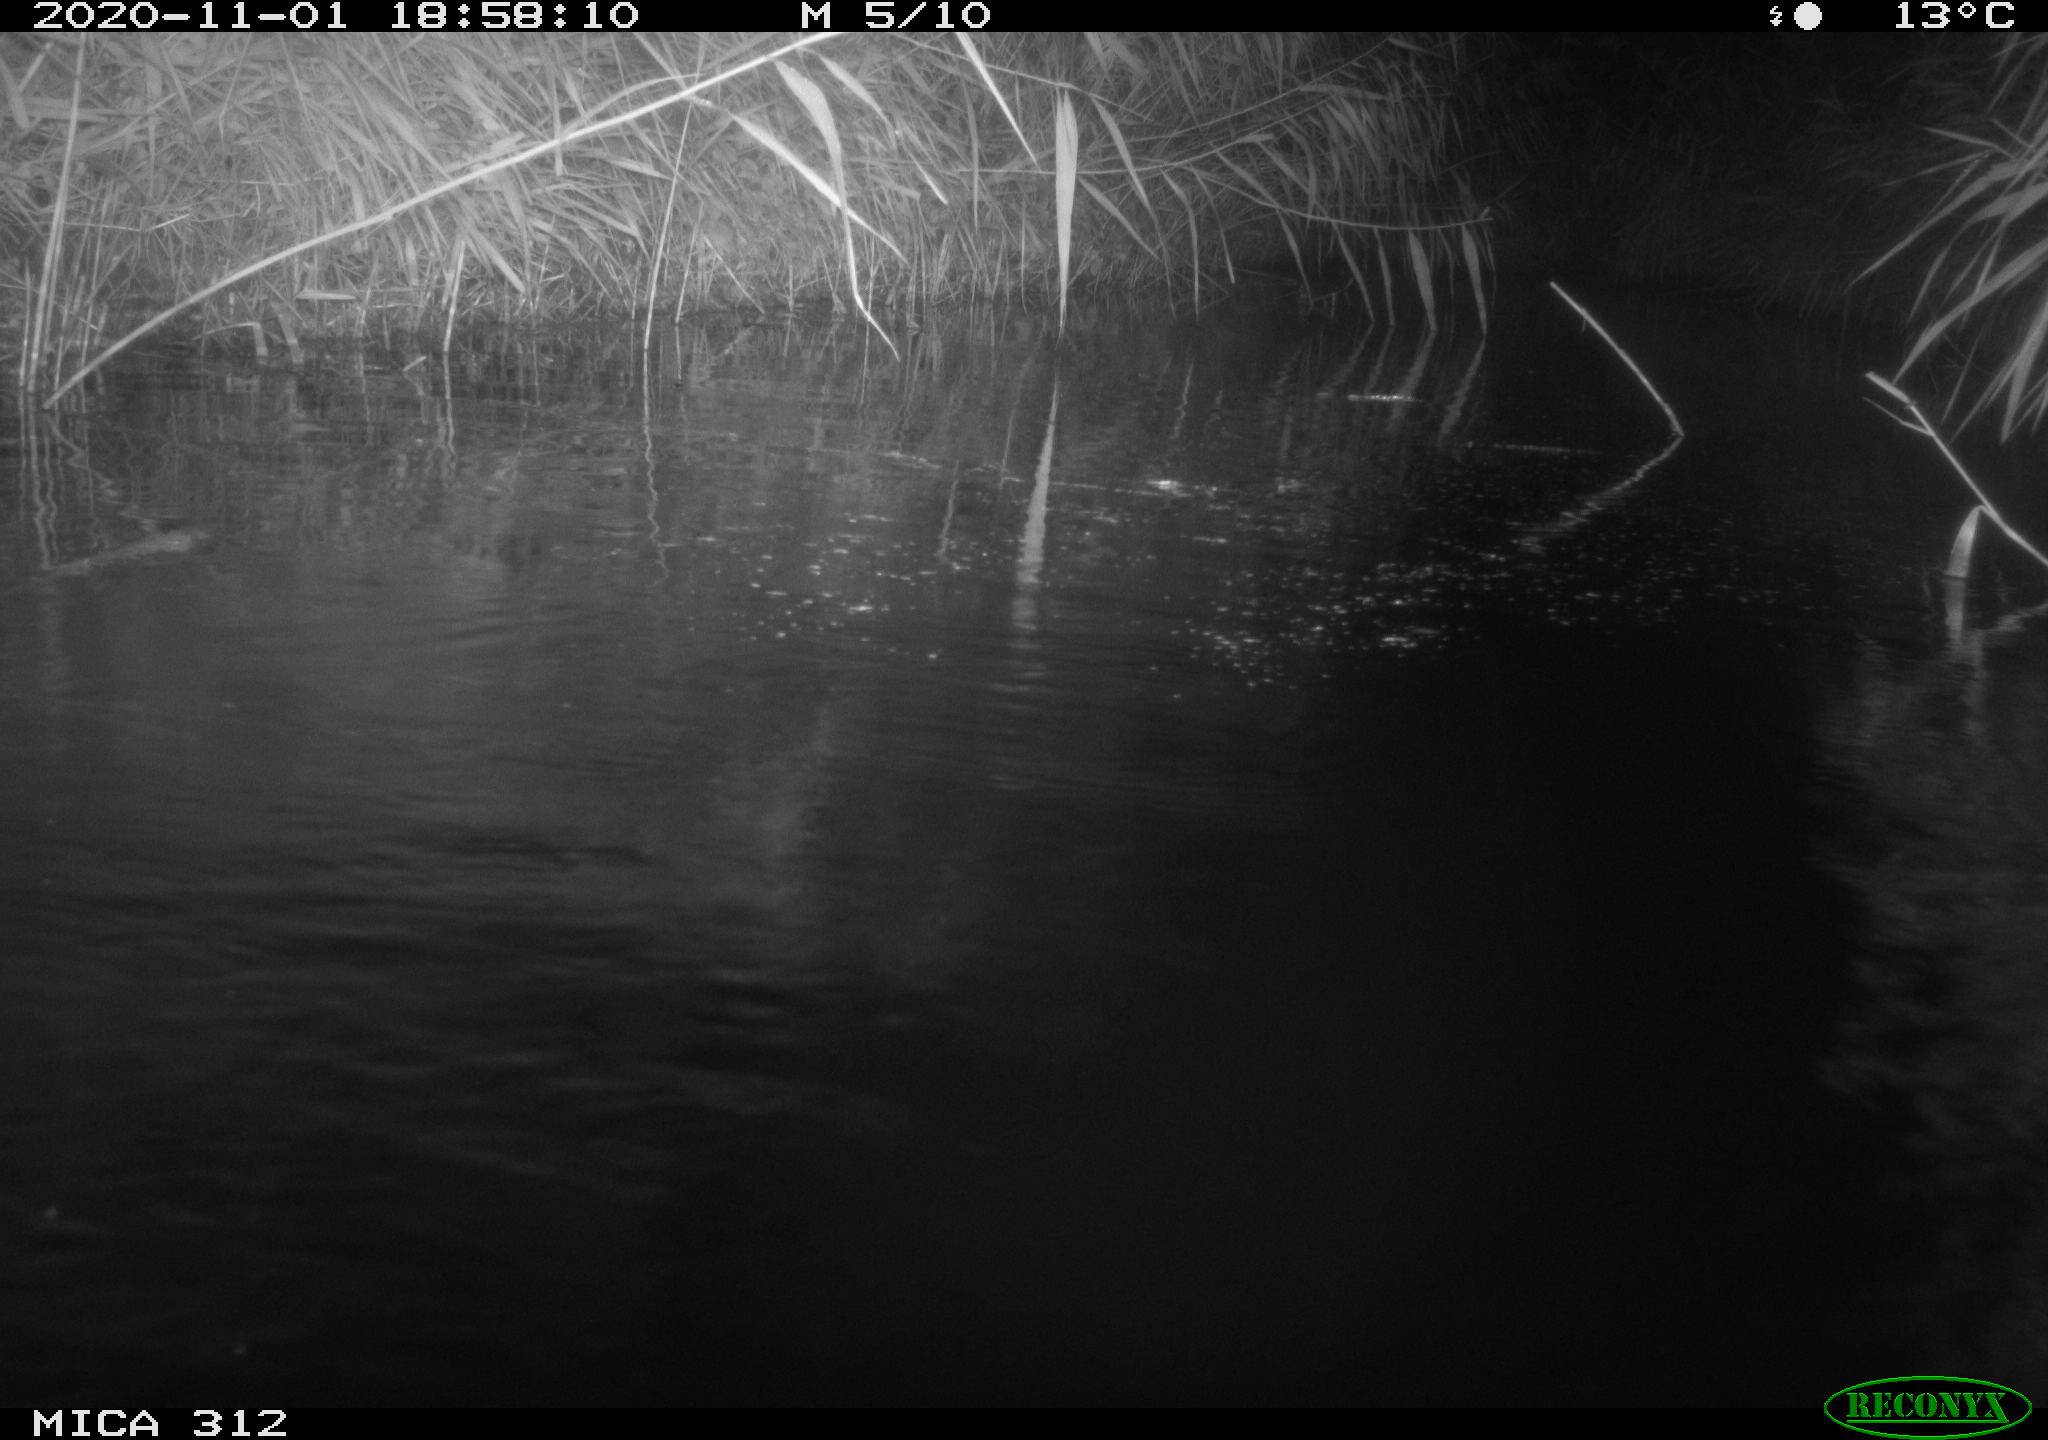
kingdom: Animalia
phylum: Chordata
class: Mammalia
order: Rodentia
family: Cricetidae
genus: Ondatra
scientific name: Ondatra zibethicus
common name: Muskrat
